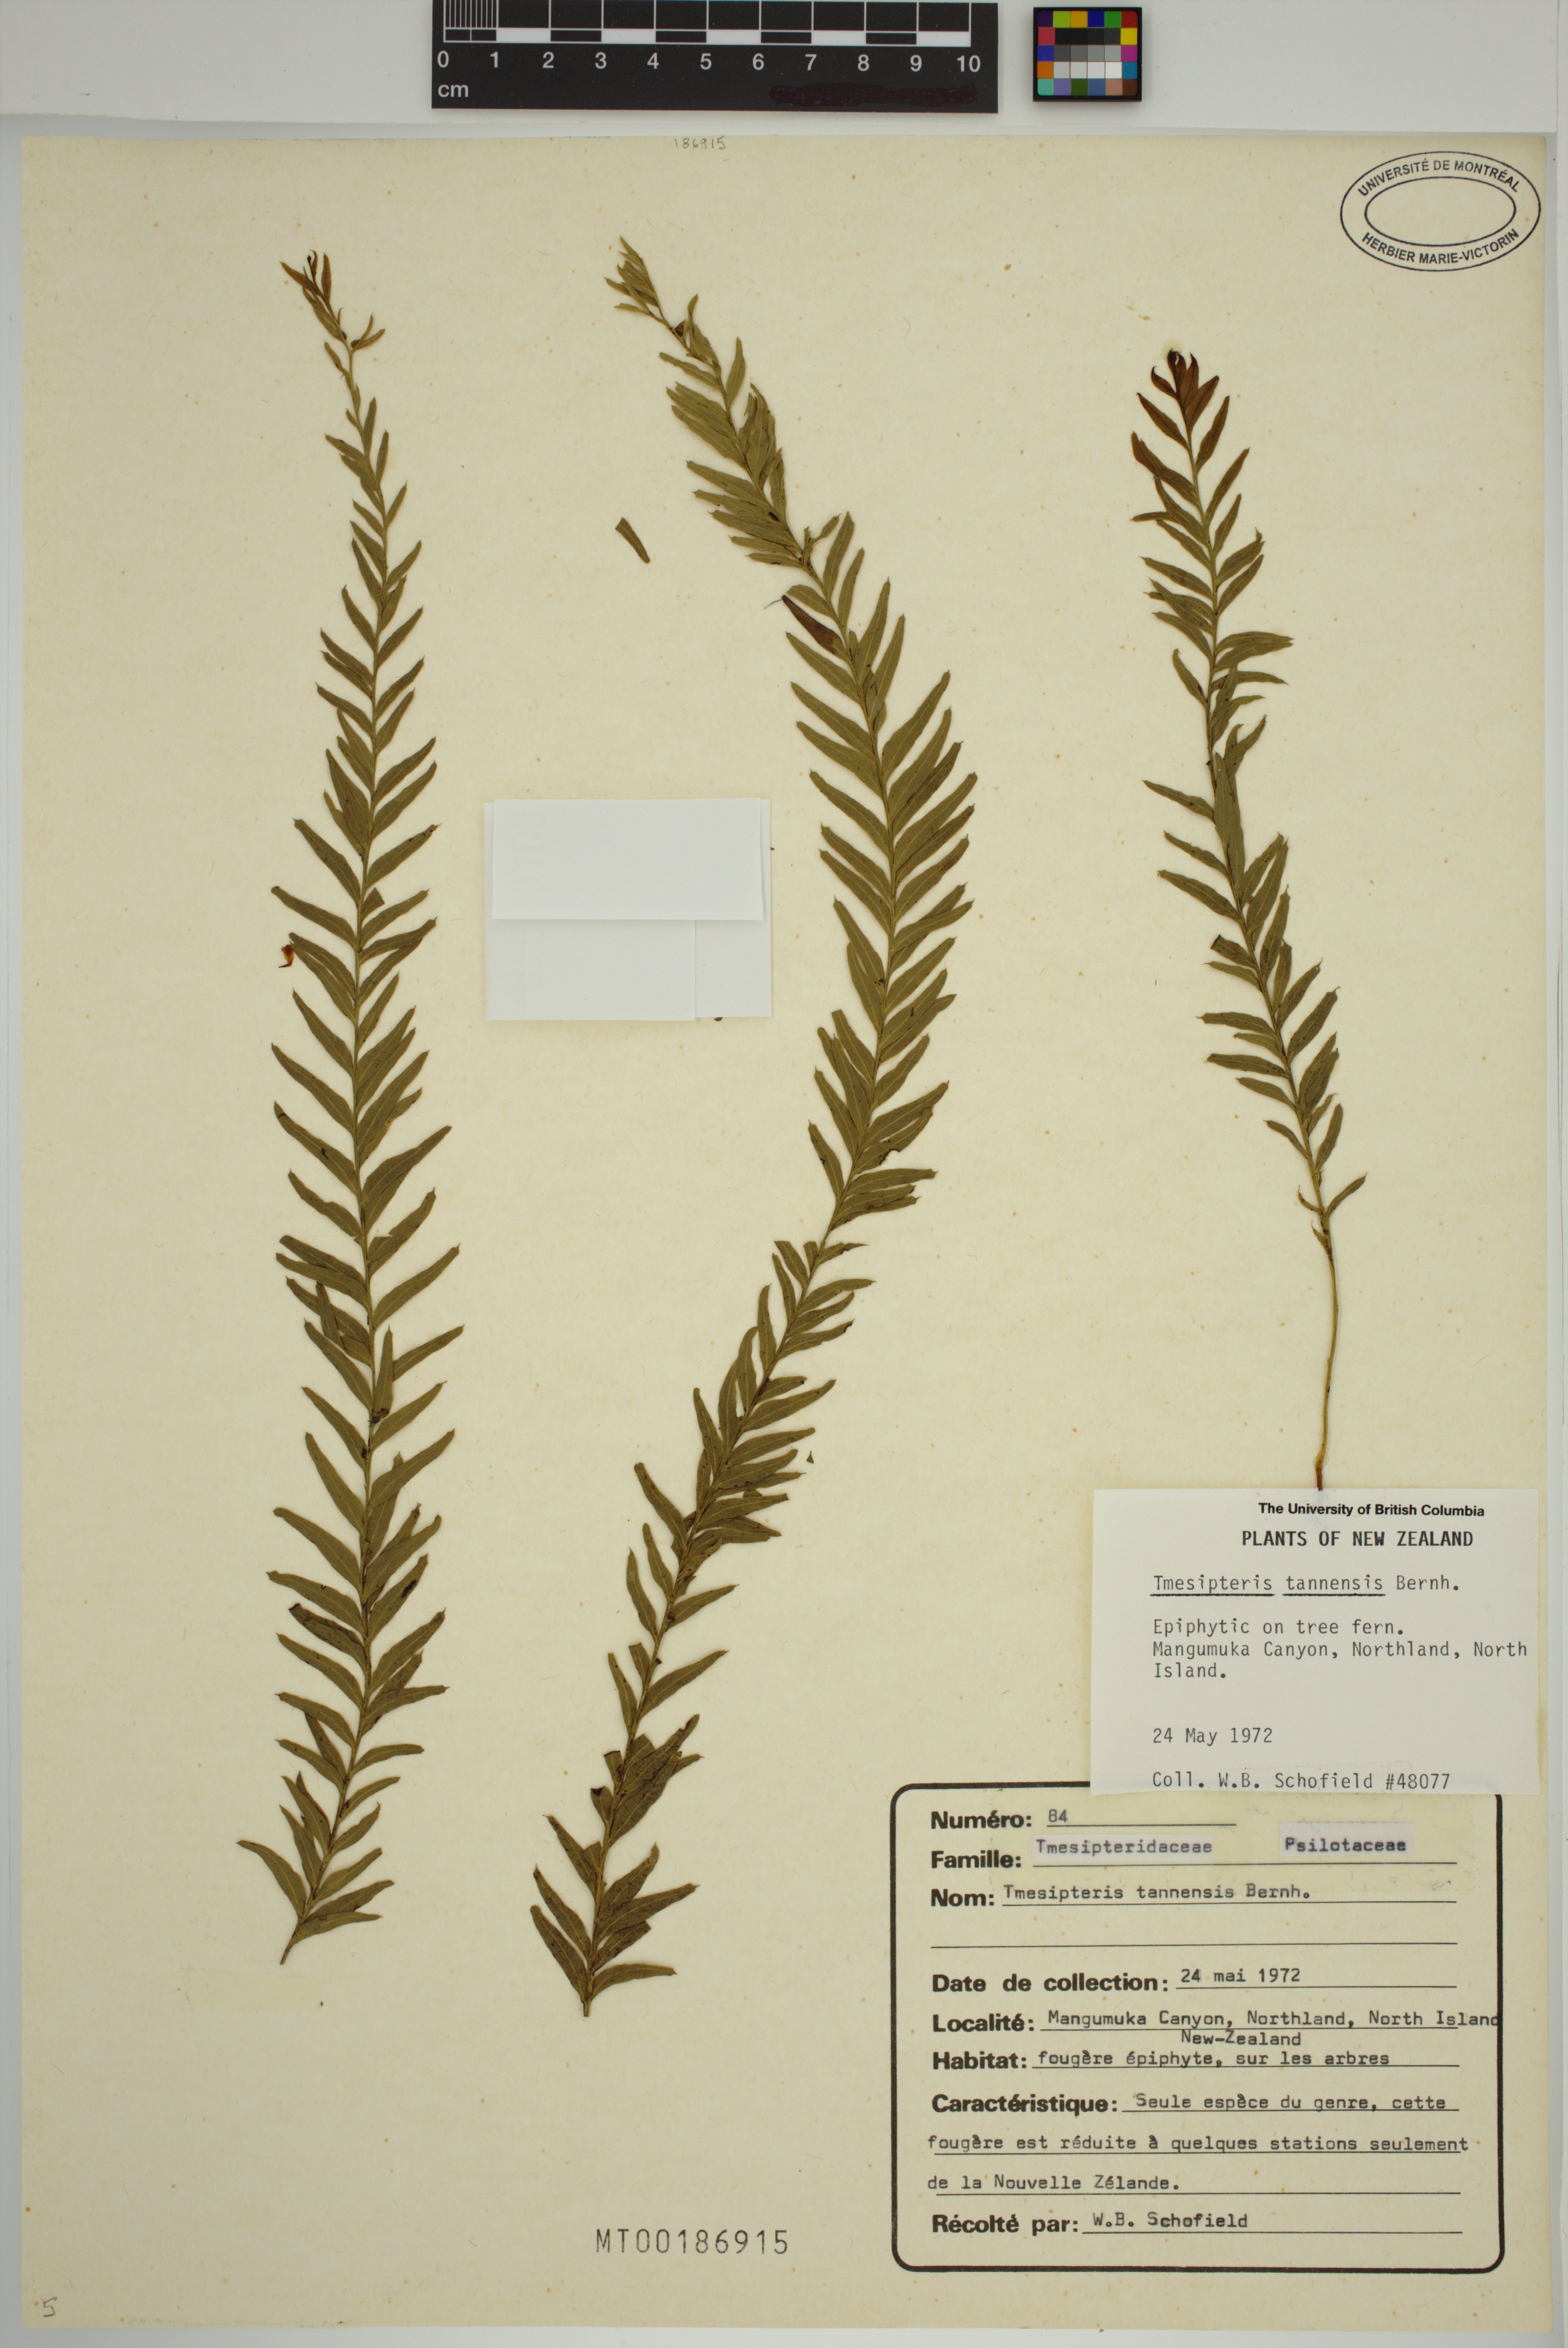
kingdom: Plantae
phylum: Tracheophyta
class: Polypodiopsida
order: Psilotales
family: Psilotaceae
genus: Tmesipteris
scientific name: Tmesipteris tannensis
